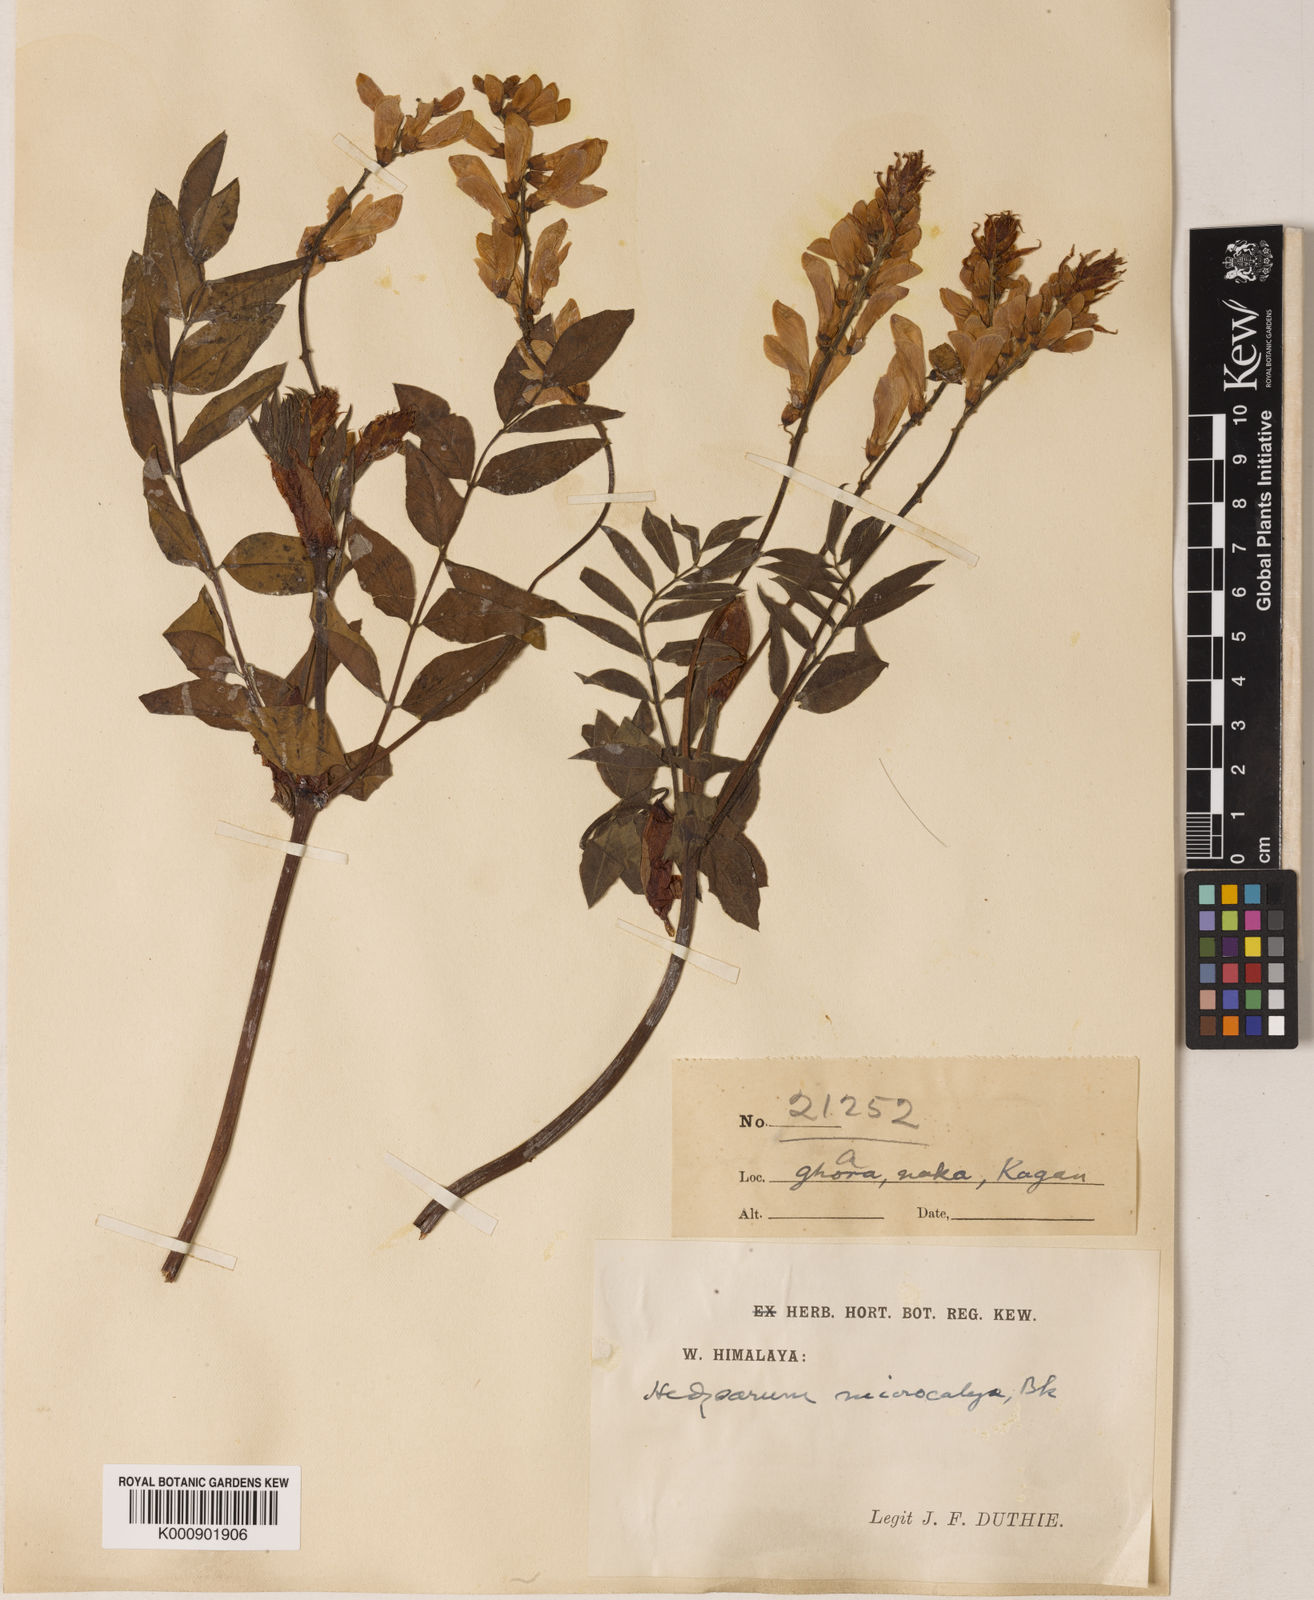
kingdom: Plantae
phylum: Tracheophyta
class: Magnoliopsida
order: Fabales
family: Fabaceae
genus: Hedysarum
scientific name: Hedysarum pseudomicrocalyx
